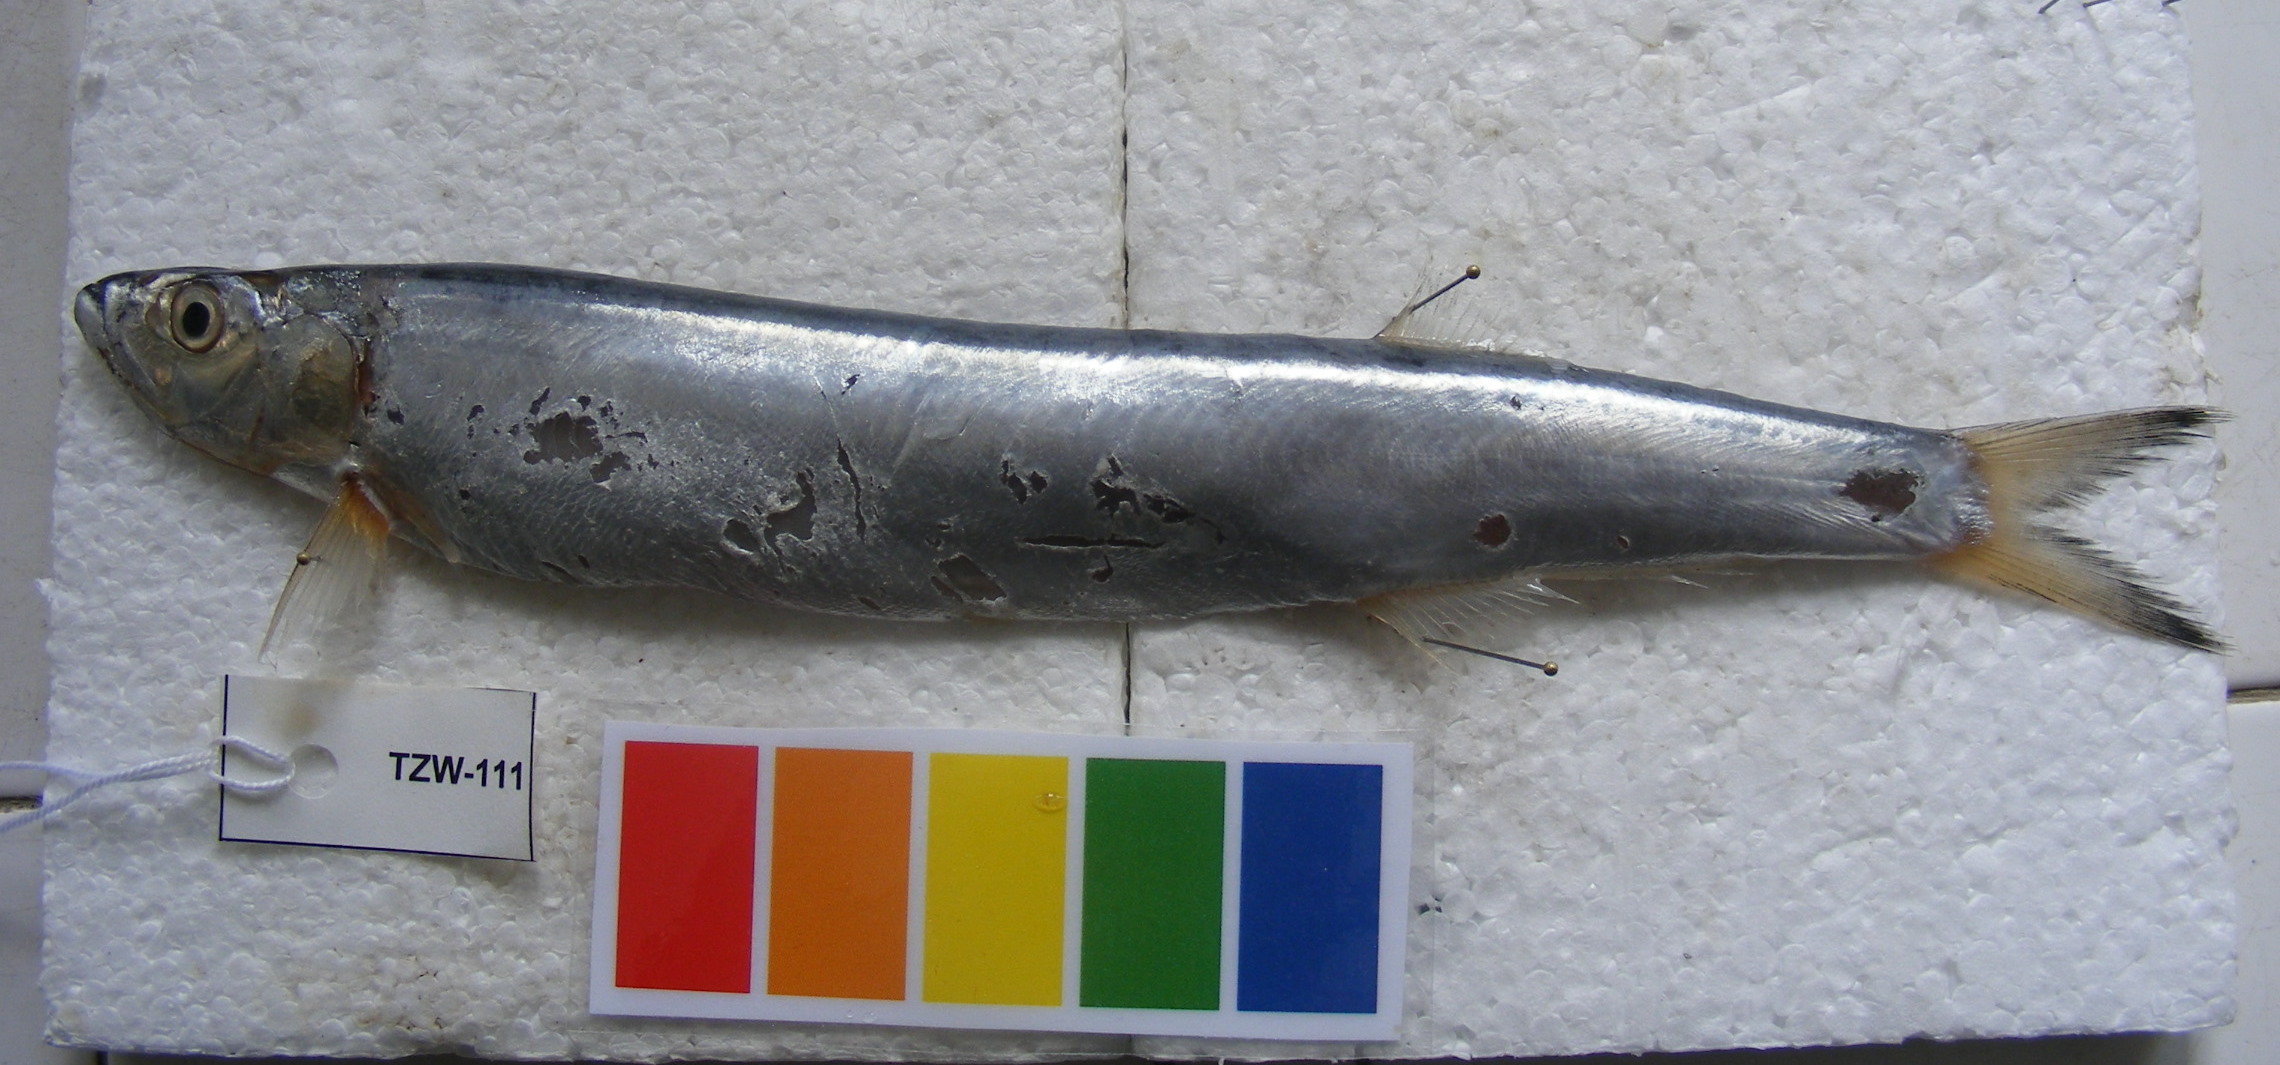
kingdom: Animalia
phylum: Chordata
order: Clupeiformes
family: Chirocentridae
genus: Chirocentrus
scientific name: Chirocentrus dorab
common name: Wolf herring
